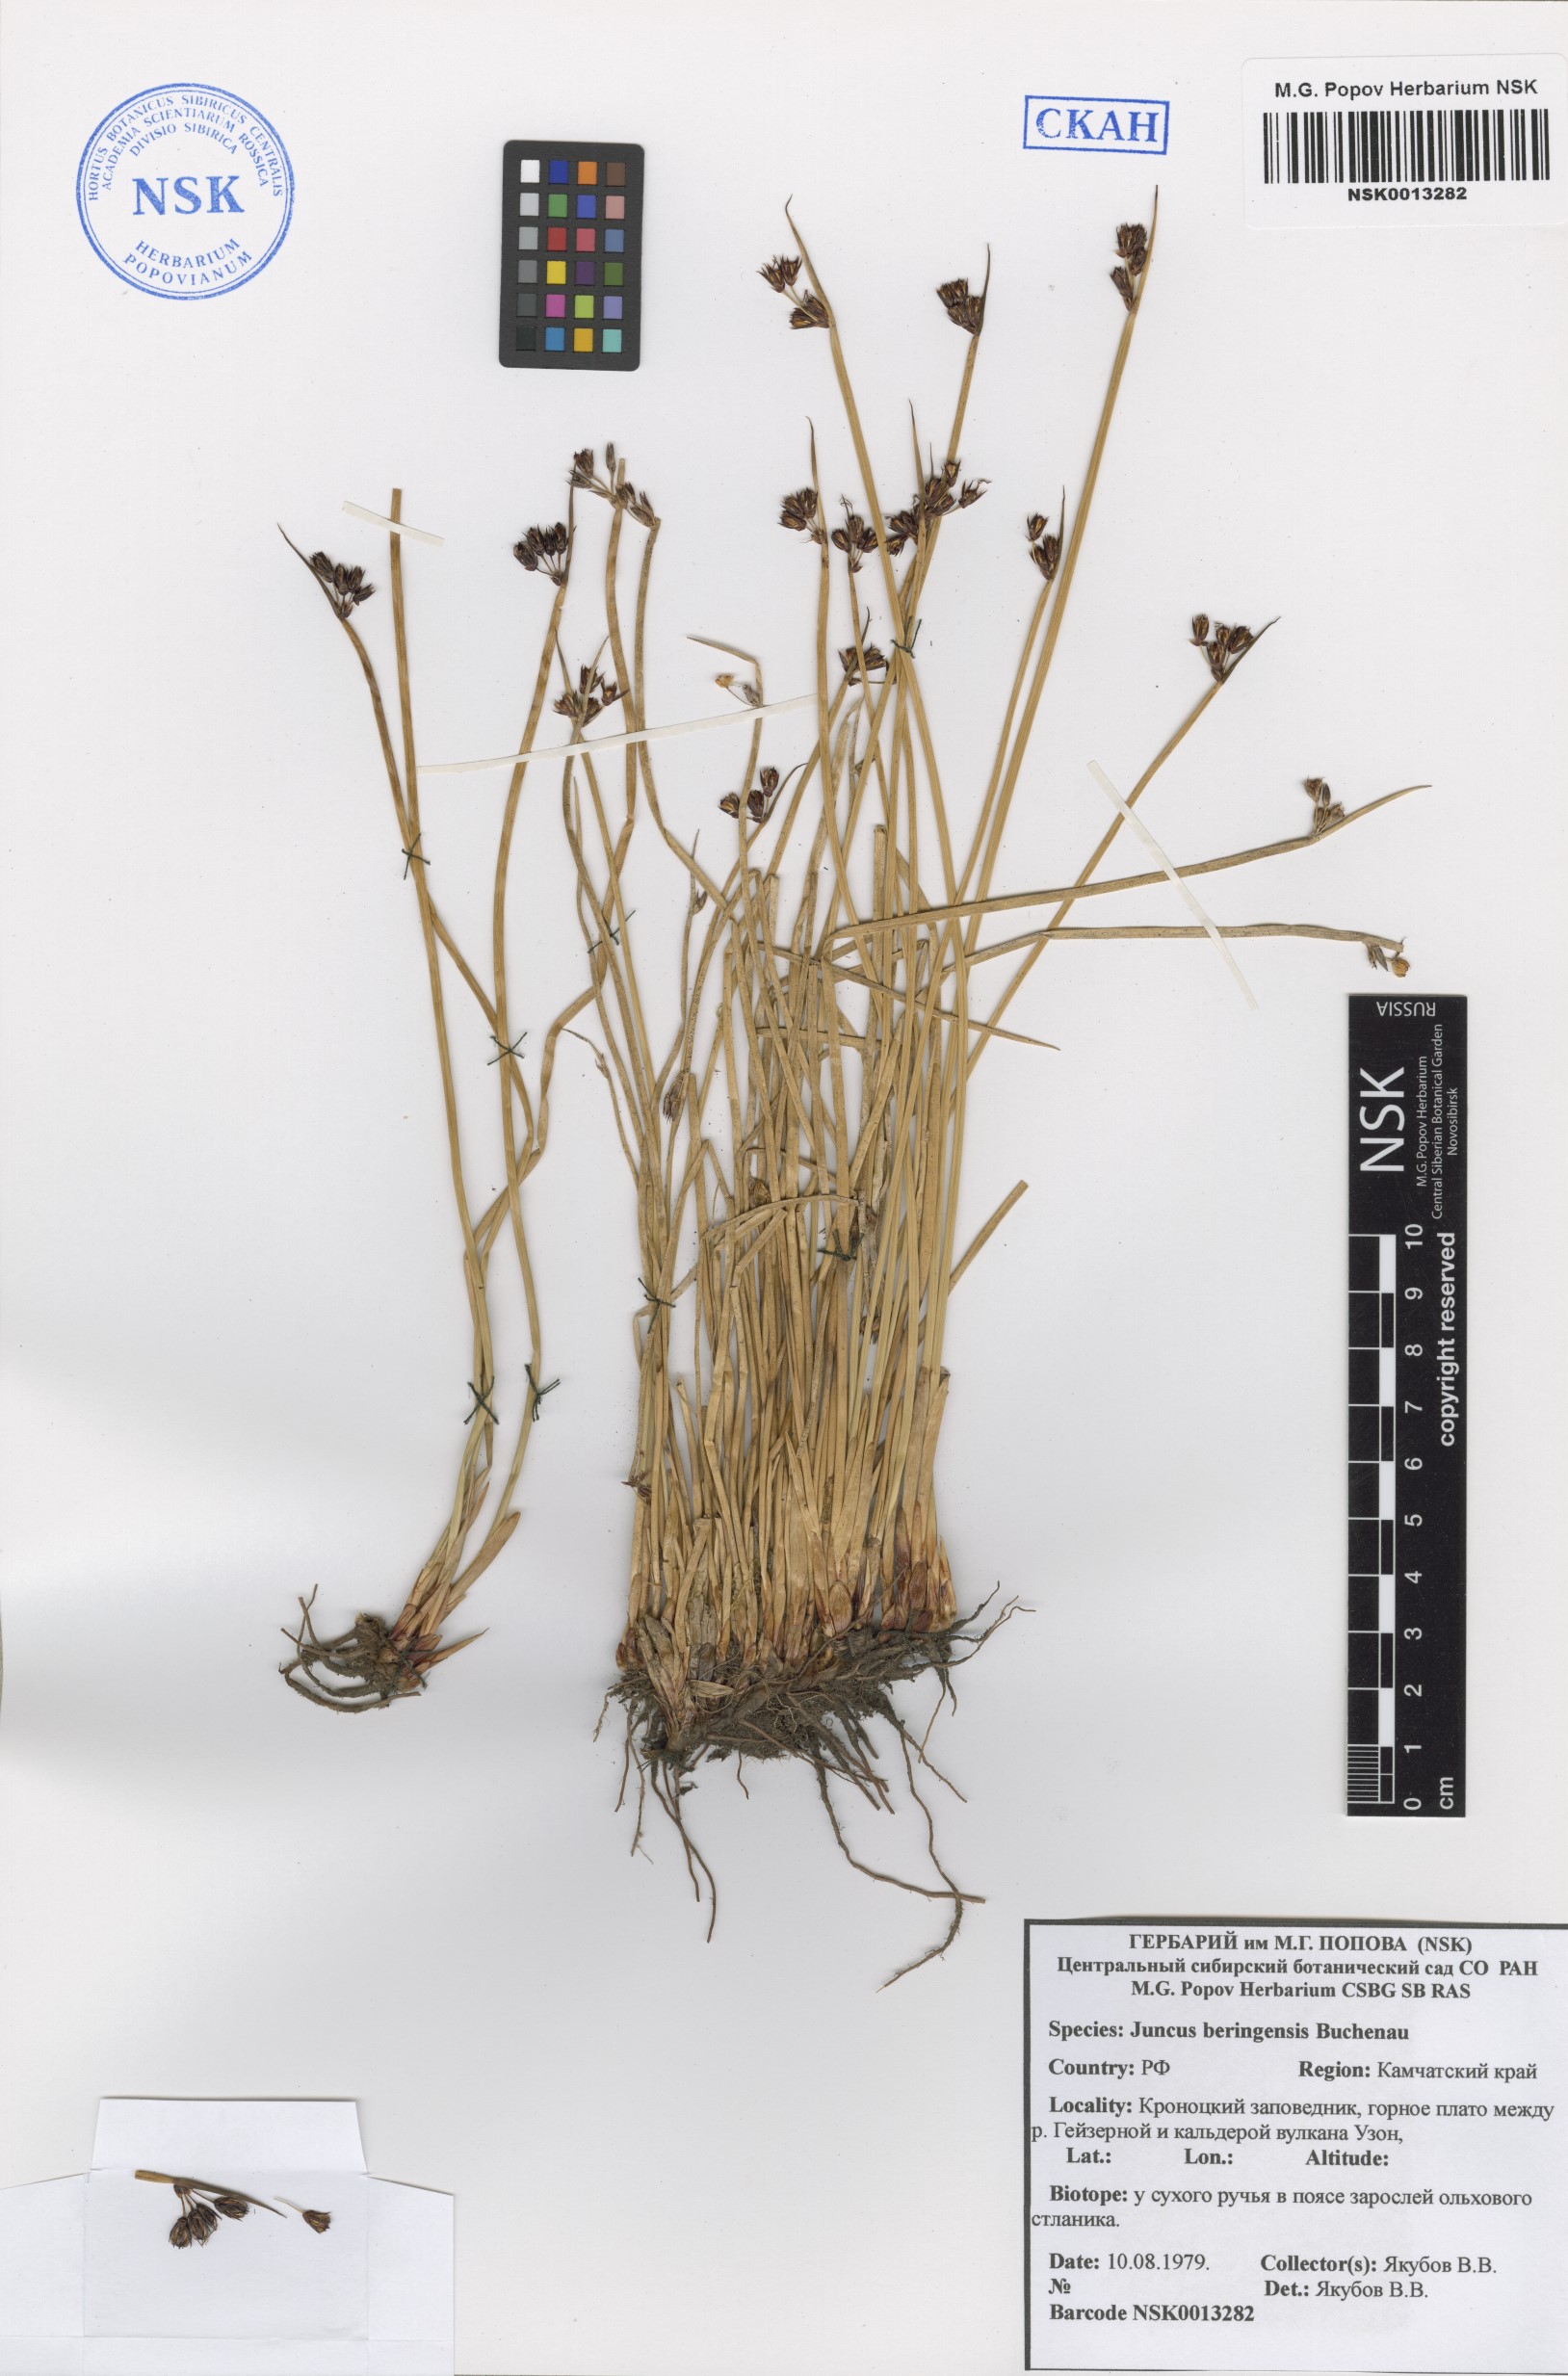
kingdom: Plantae
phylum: Tracheophyta
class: Liliopsida
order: Poales
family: Juncaceae
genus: Juncus
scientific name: Juncus beringensis
